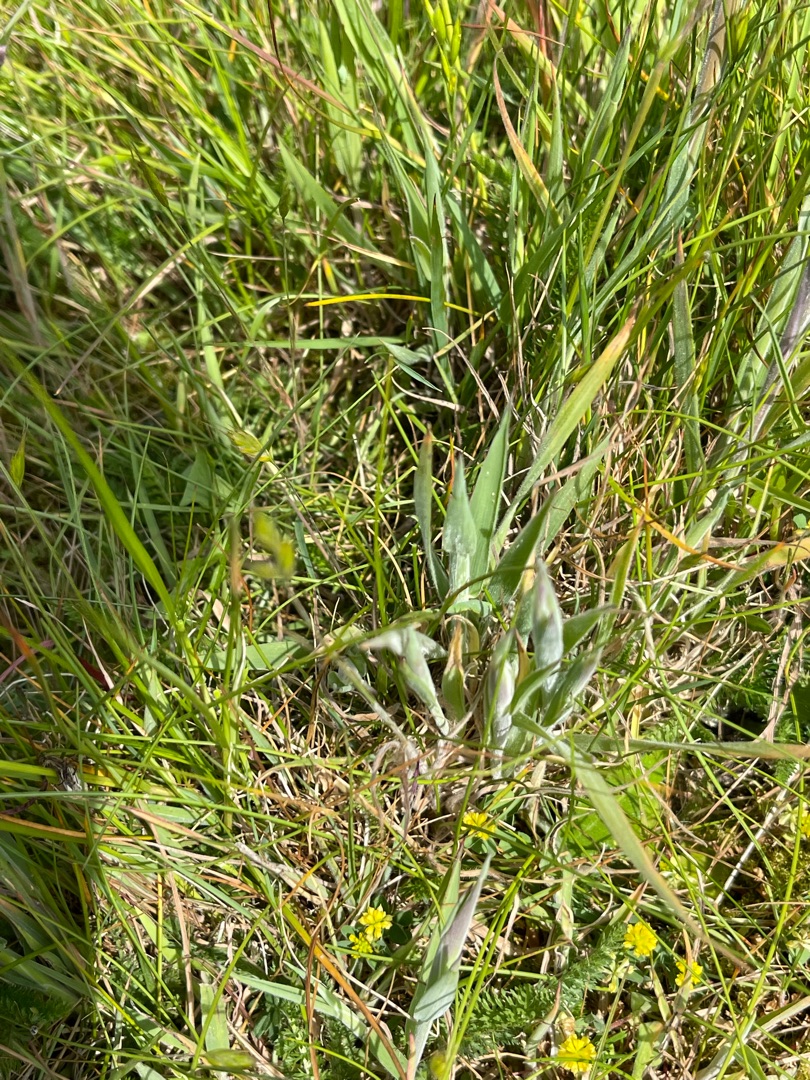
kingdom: Plantae
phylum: Tracheophyta
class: Liliopsida
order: Poales
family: Poaceae
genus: Holcus
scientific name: Holcus lanatus
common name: Fløjlsgræs
